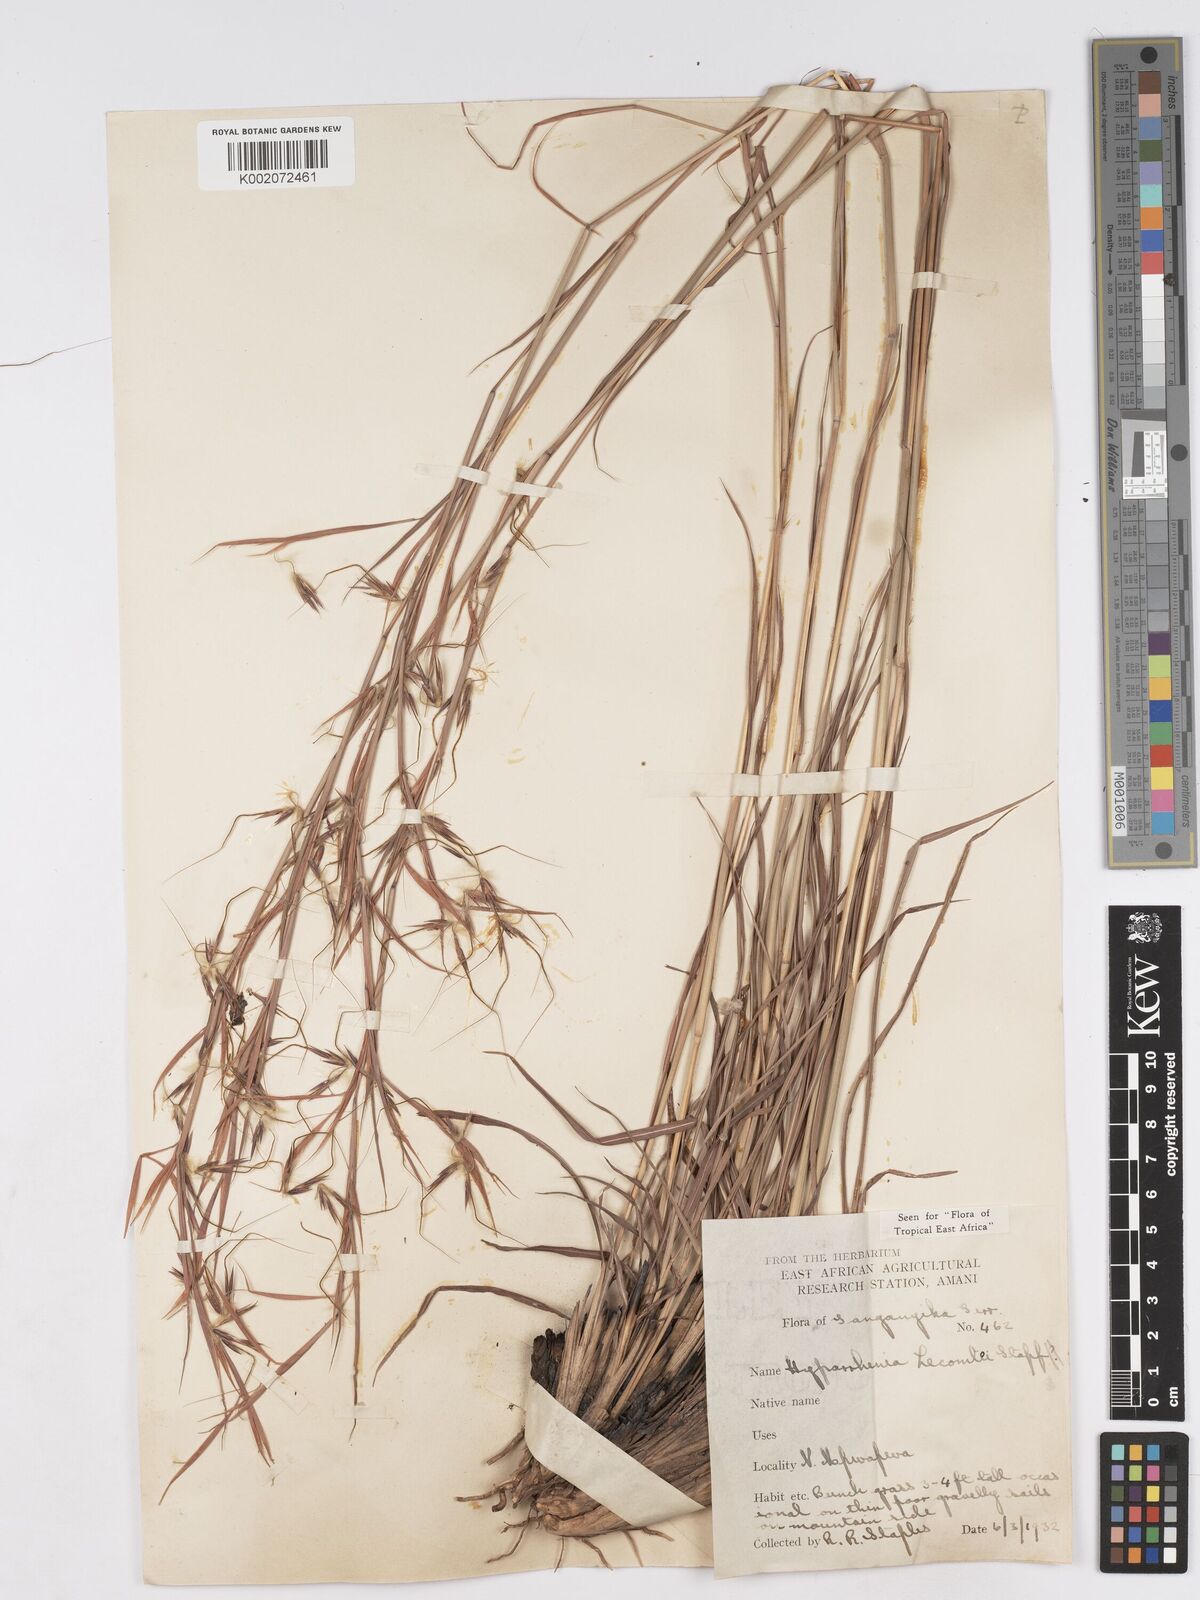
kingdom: Plantae
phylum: Tracheophyta
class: Liliopsida
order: Poales
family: Poaceae
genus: Hyparrhenia
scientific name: Hyparrhenia newtonii
